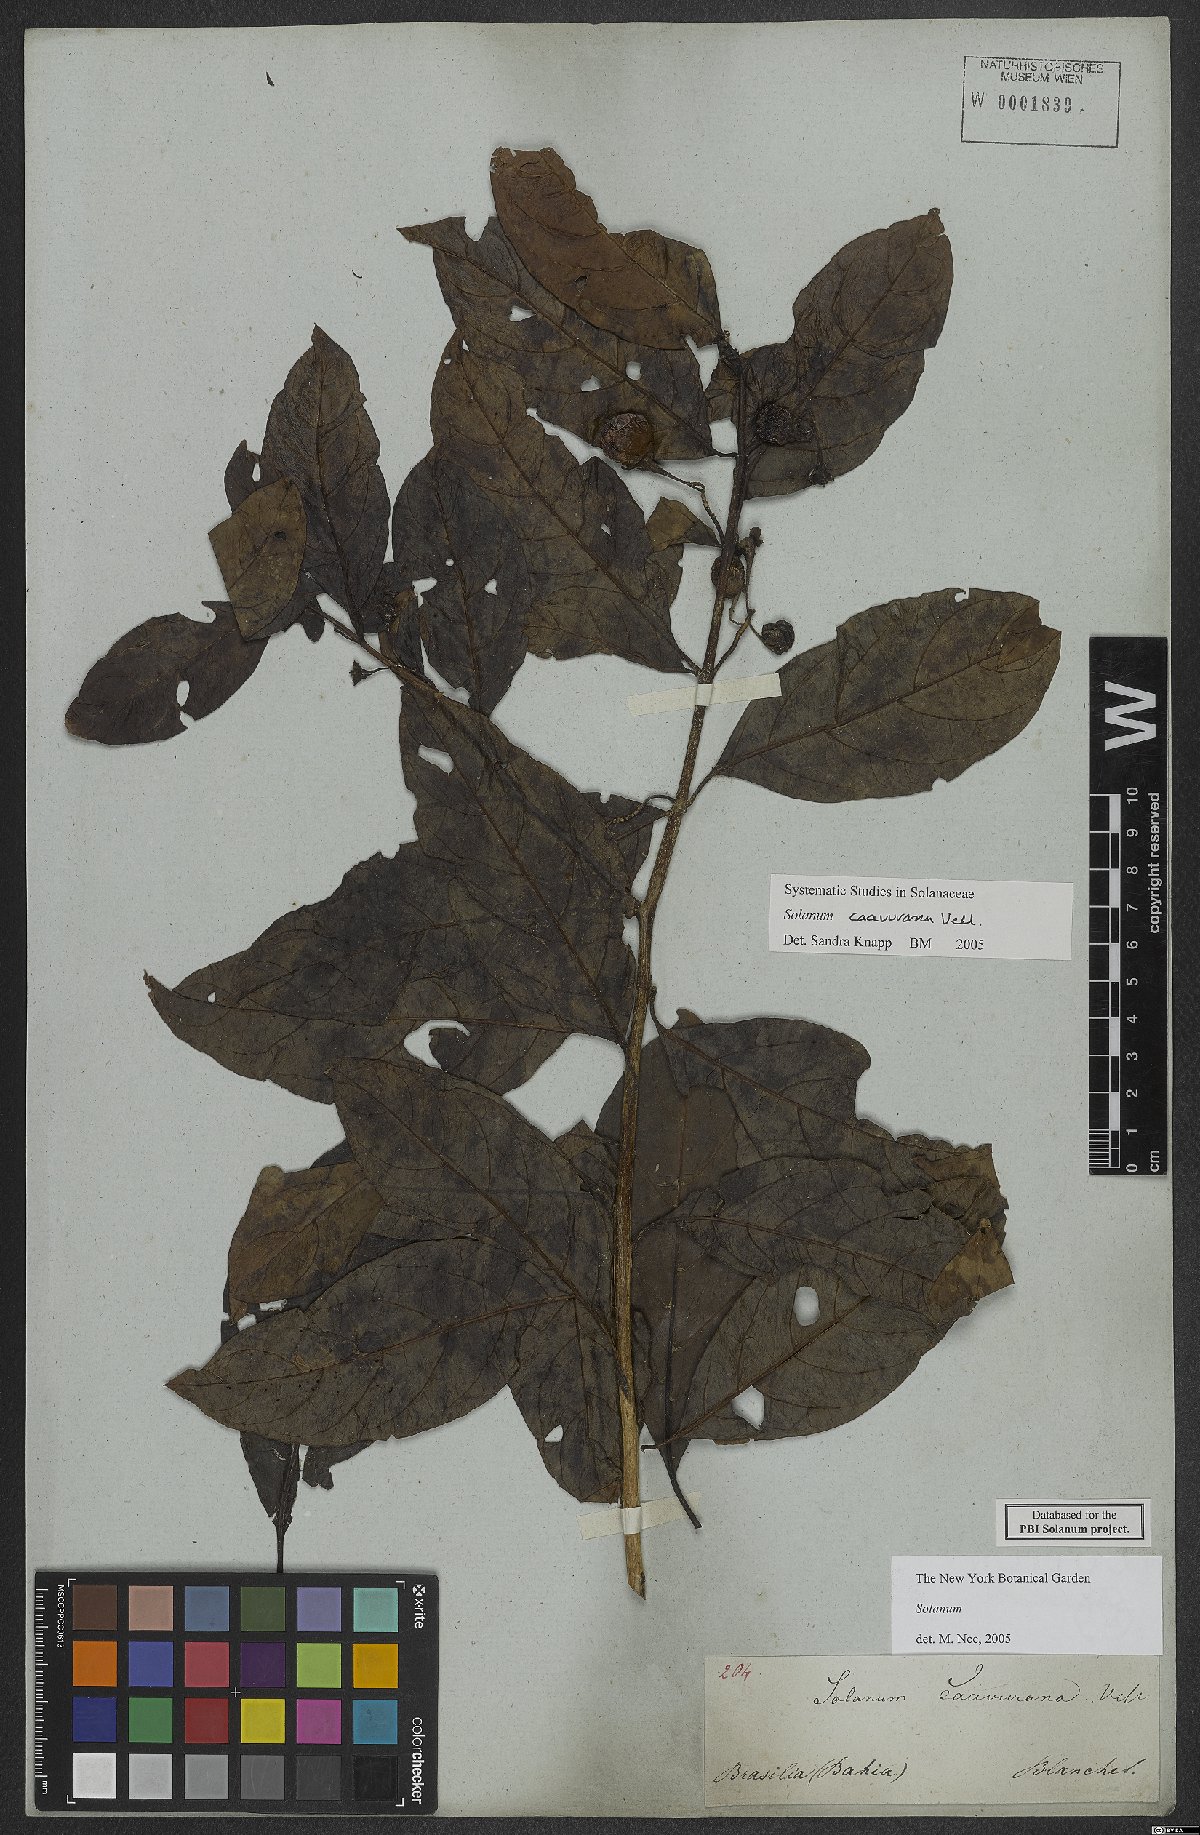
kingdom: Plantae
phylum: Tracheophyta
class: Magnoliopsida
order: Solanales
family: Solanaceae
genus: Solanum
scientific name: Solanum caavurana
